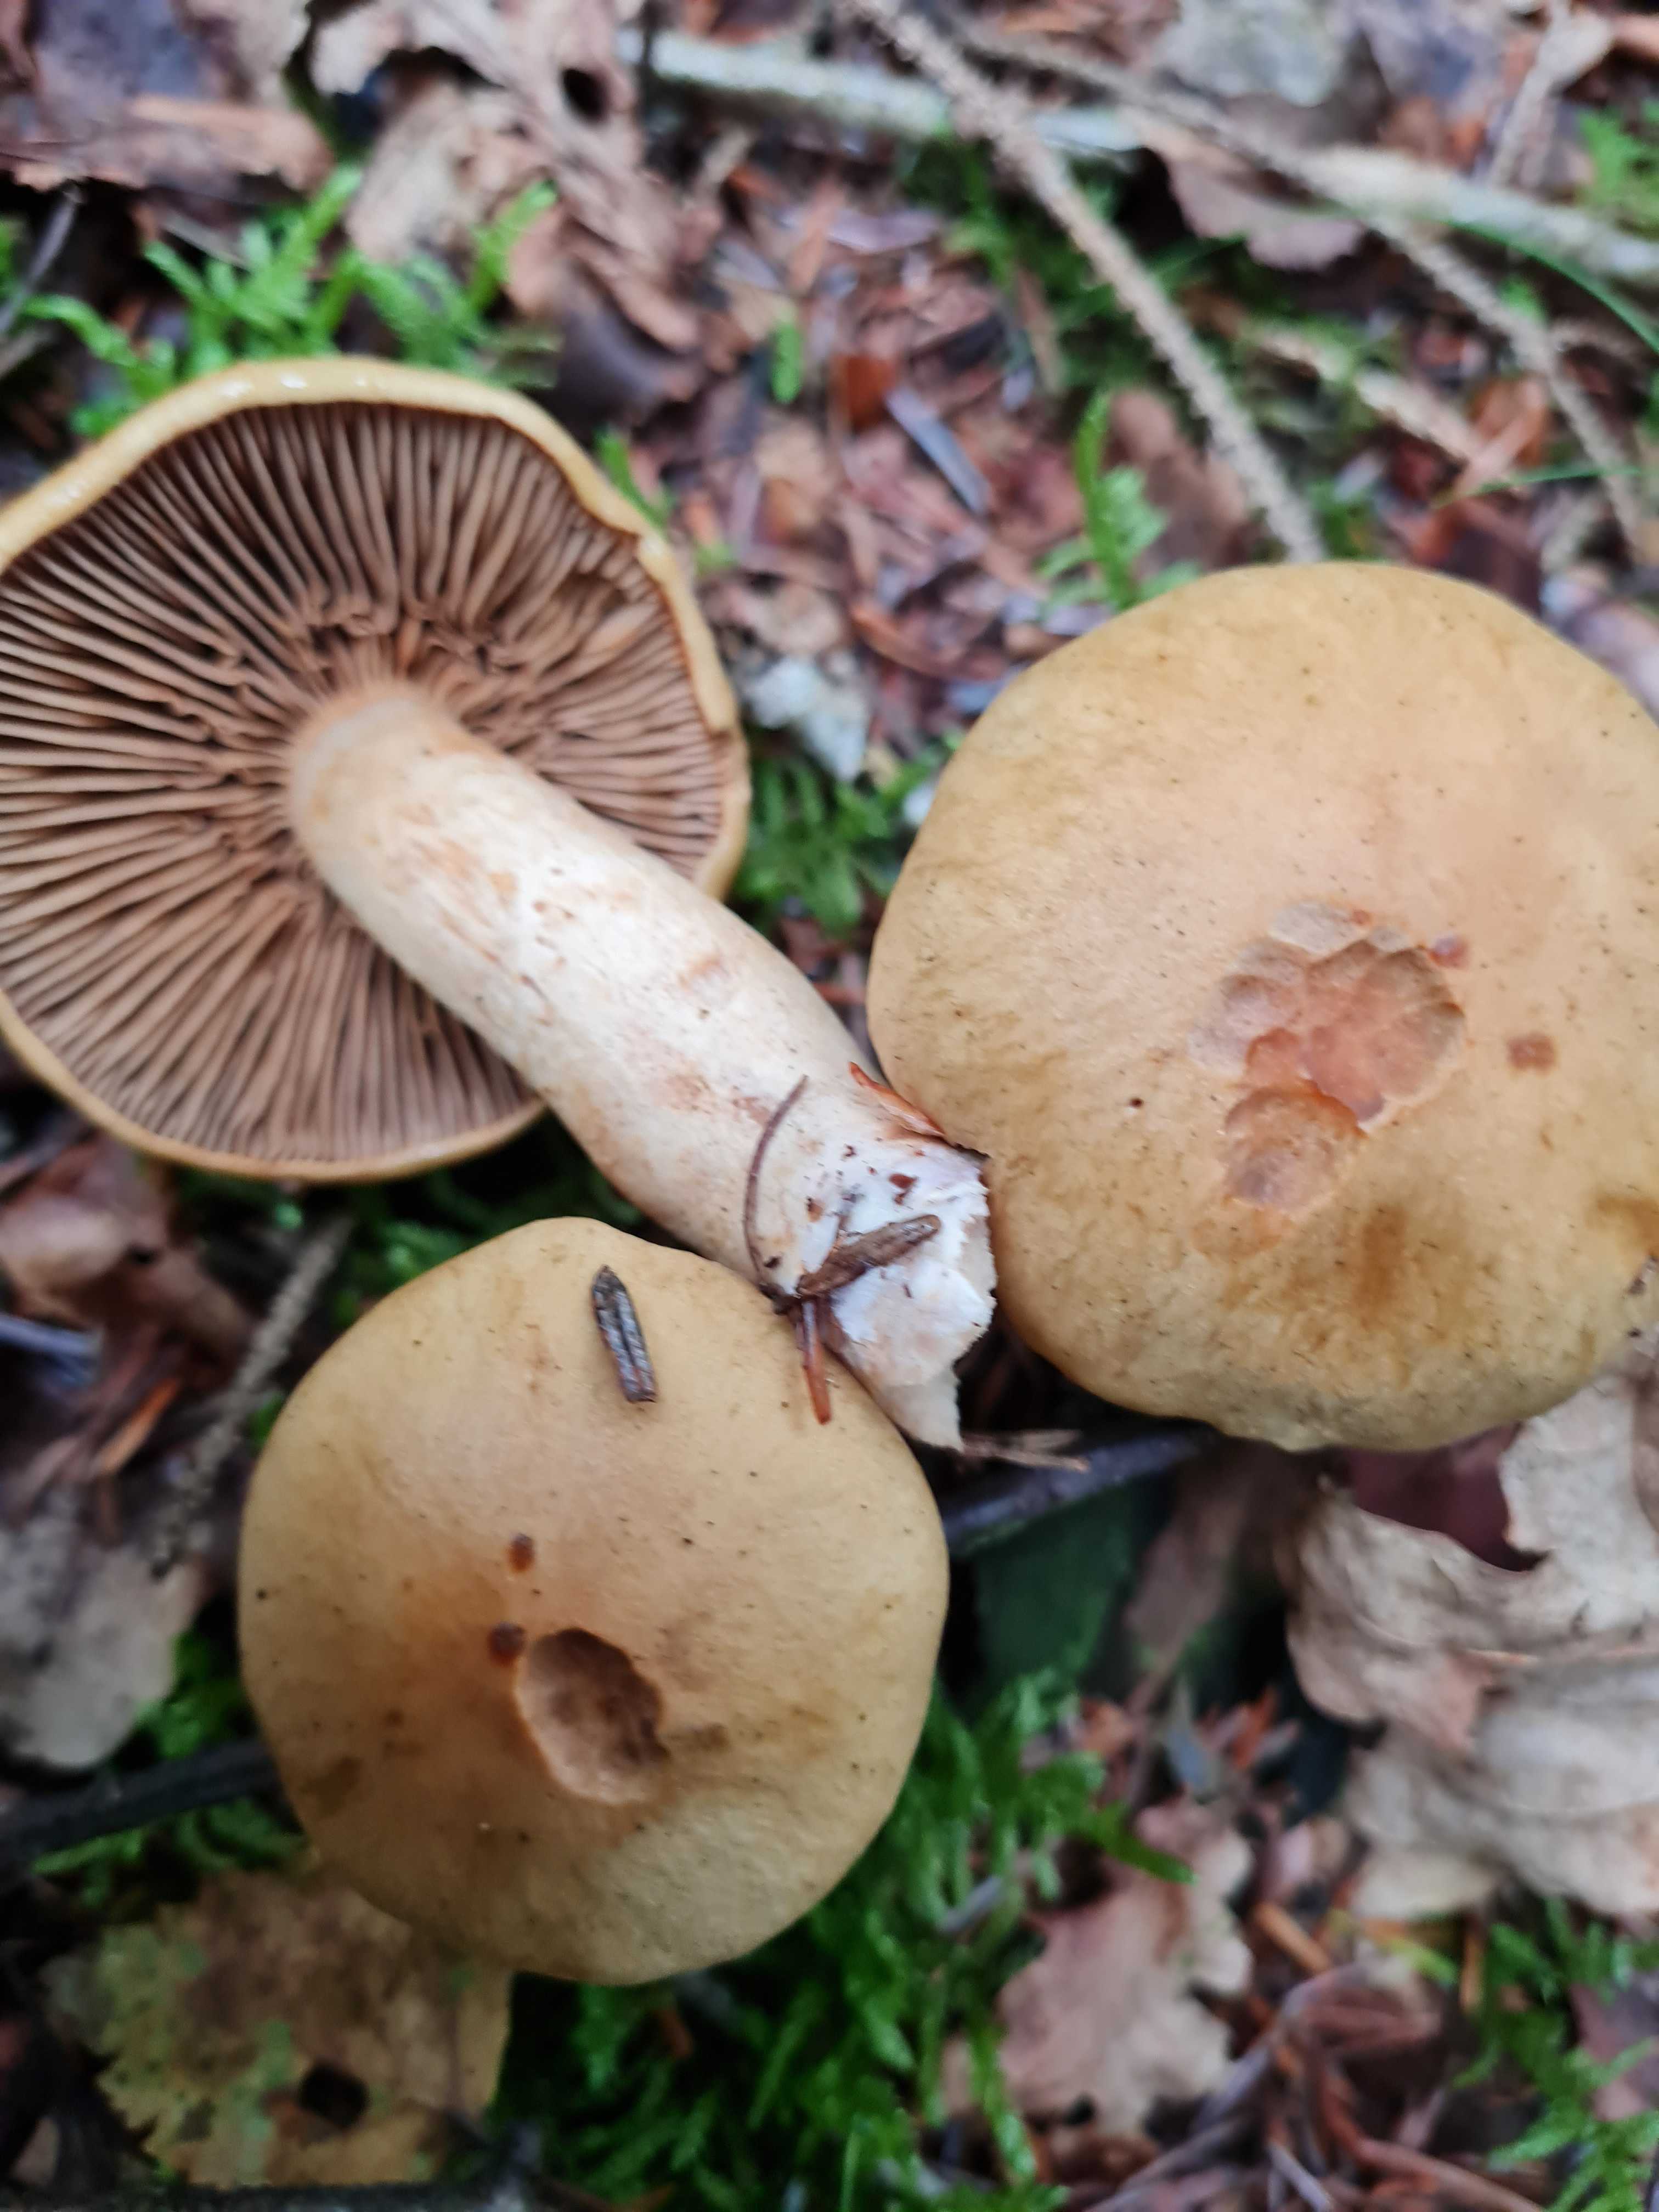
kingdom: Fungi
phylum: Basidiomycota
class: Agaricomycetes
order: Agaricales
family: Cortinariaceae
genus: Cortinarius
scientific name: Cortinarius
